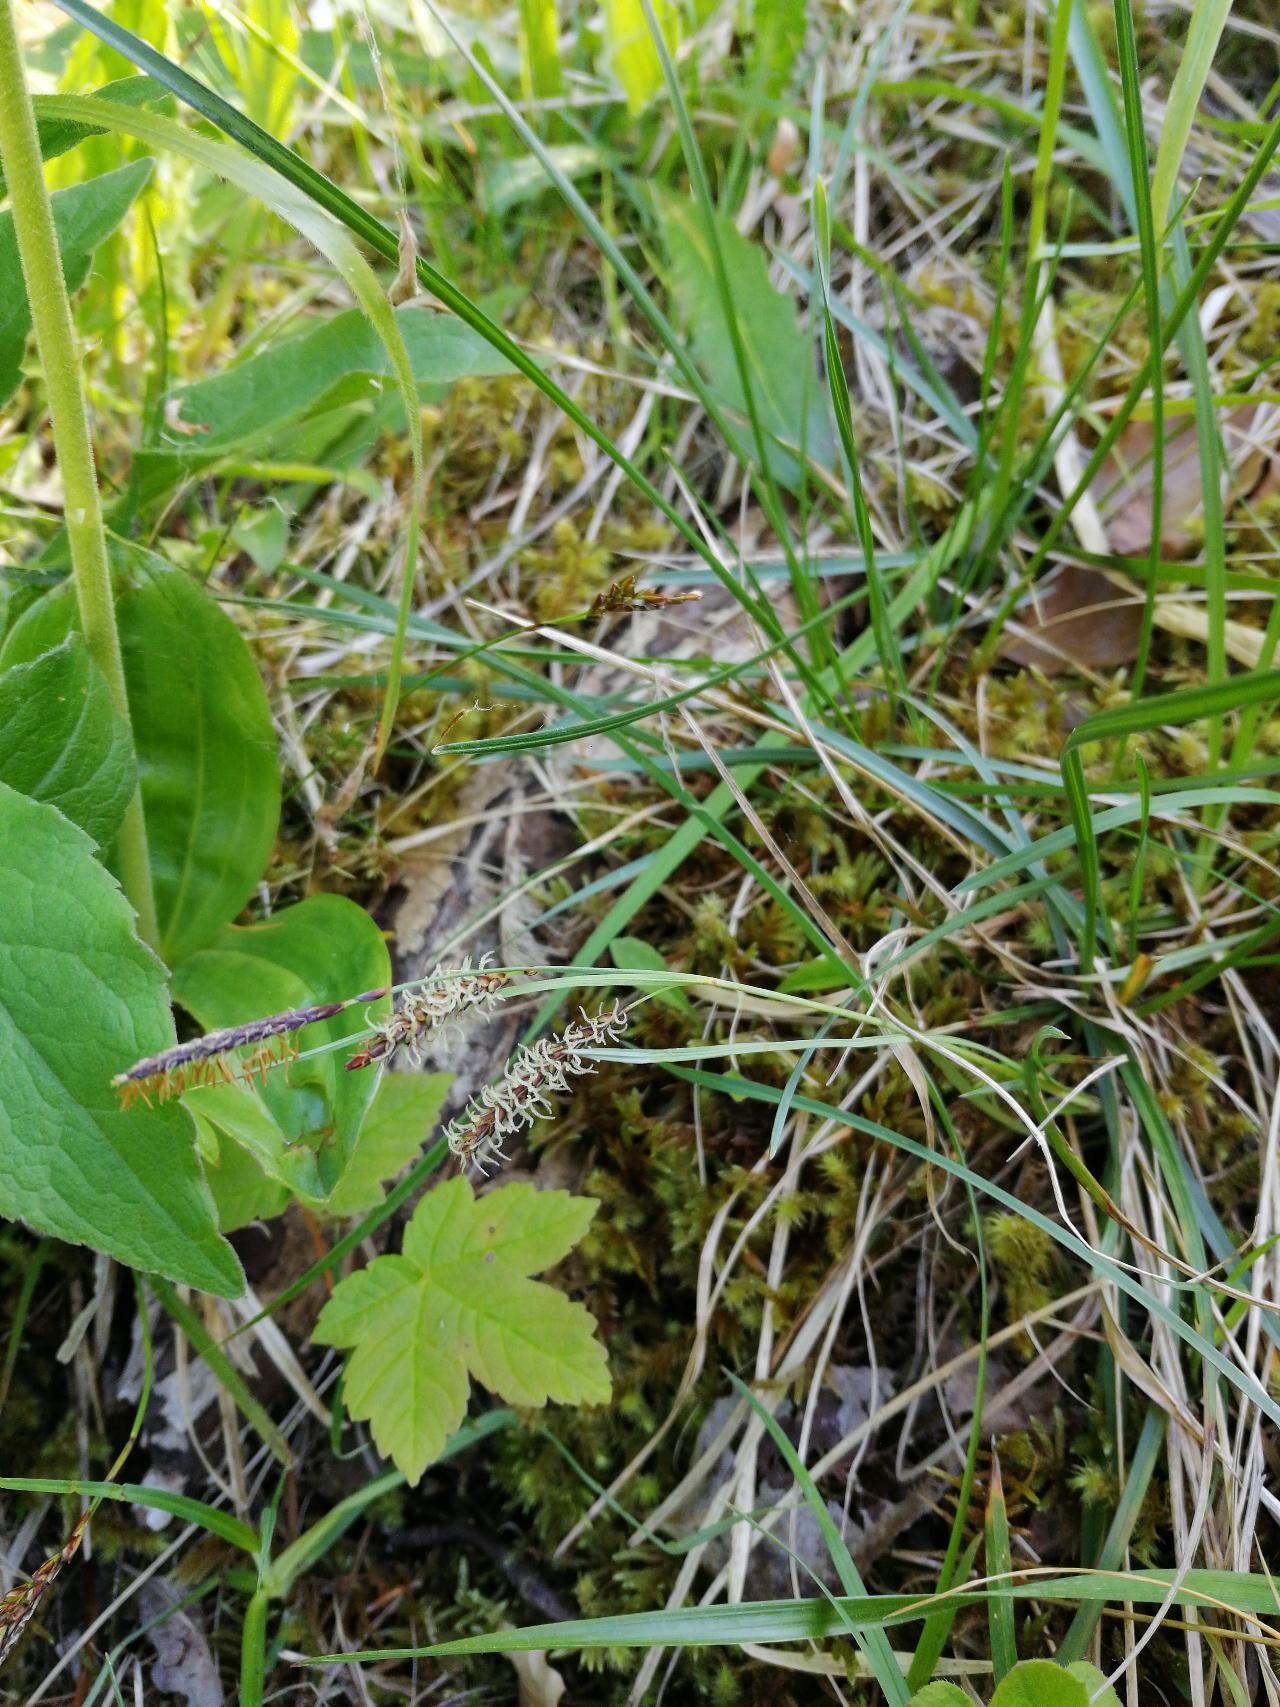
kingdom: Plantae
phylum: Tracheophyta
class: Liliopsida
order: Poales
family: Cyperaceae
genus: Carex
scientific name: Carex flacca
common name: Blågrøn star
